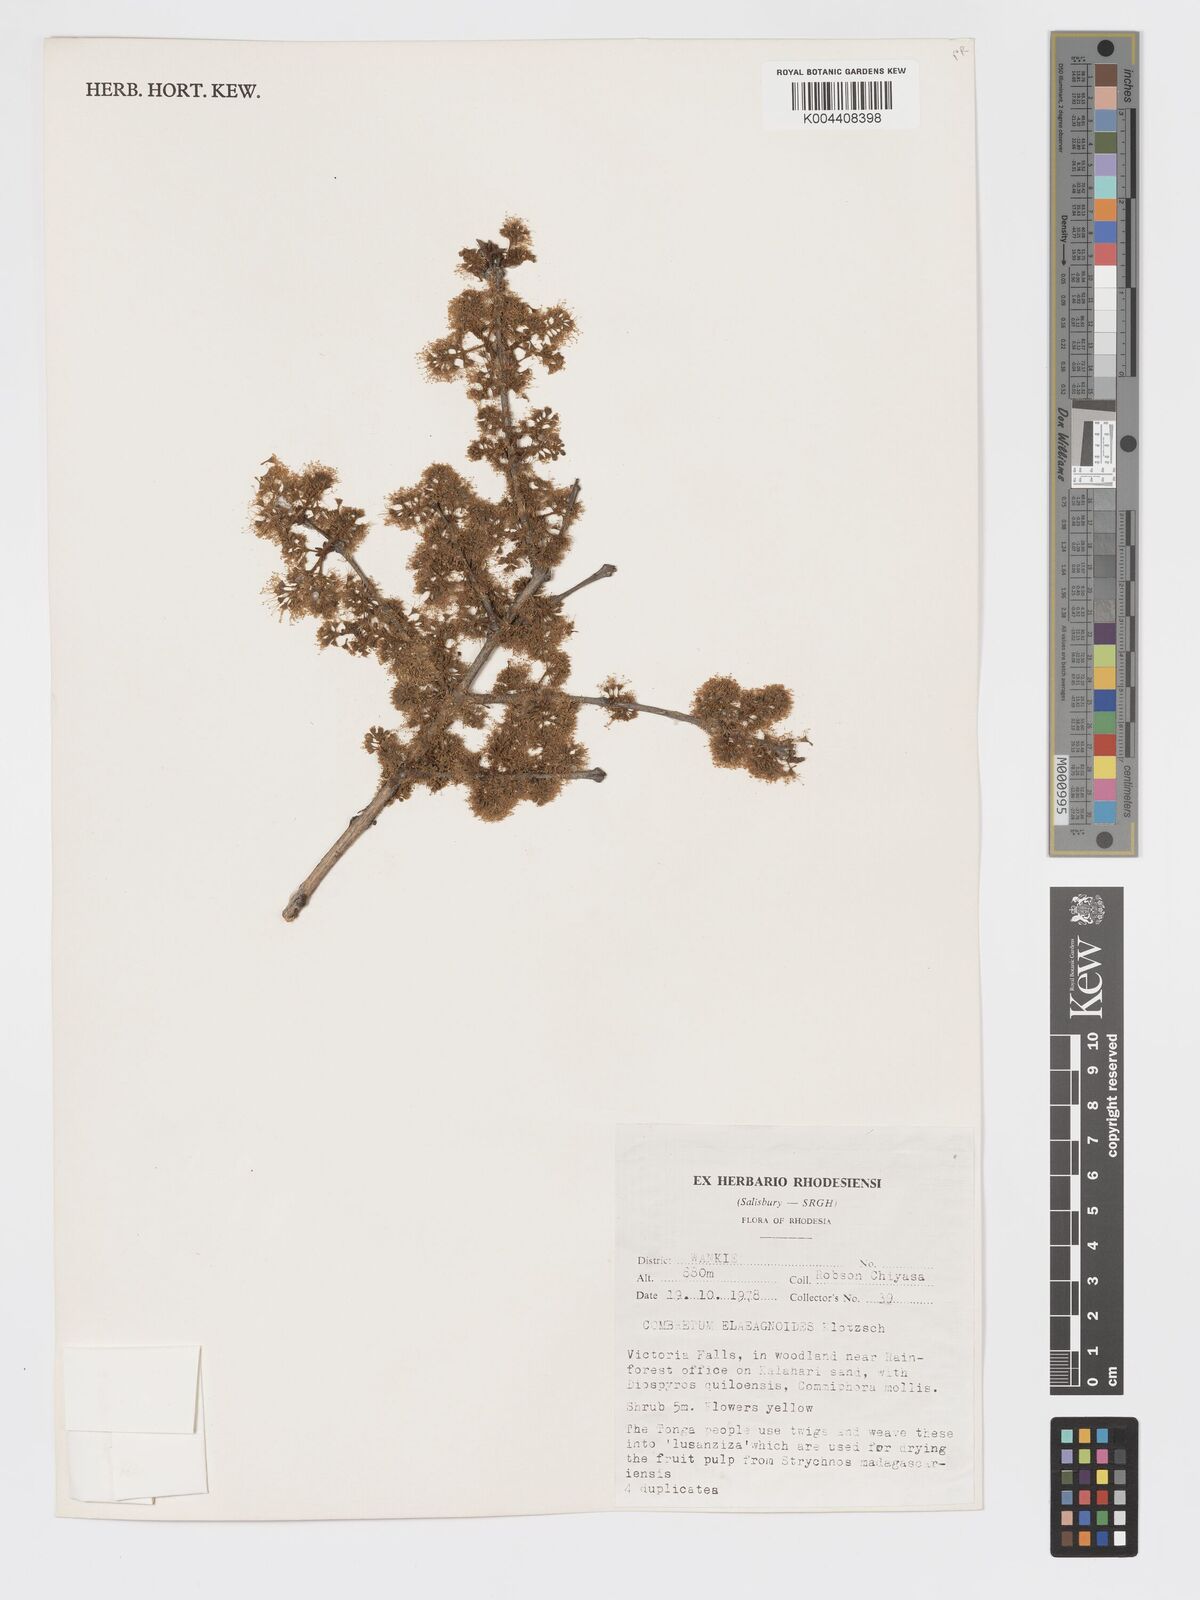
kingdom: Plantae
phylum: Tracheophyta
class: Magnoliopsida
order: Myrtales
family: Combretaceae
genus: Combretum
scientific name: Combretum elaeagnoides
